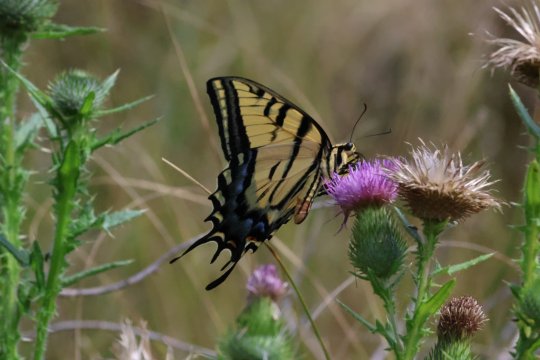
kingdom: Animalia
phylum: Arthropoda
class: Insecta
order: Lepidoptera
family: Papilionidae
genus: Papilio
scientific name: Papilio multicaudata
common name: Two-tailed Swallowtail
